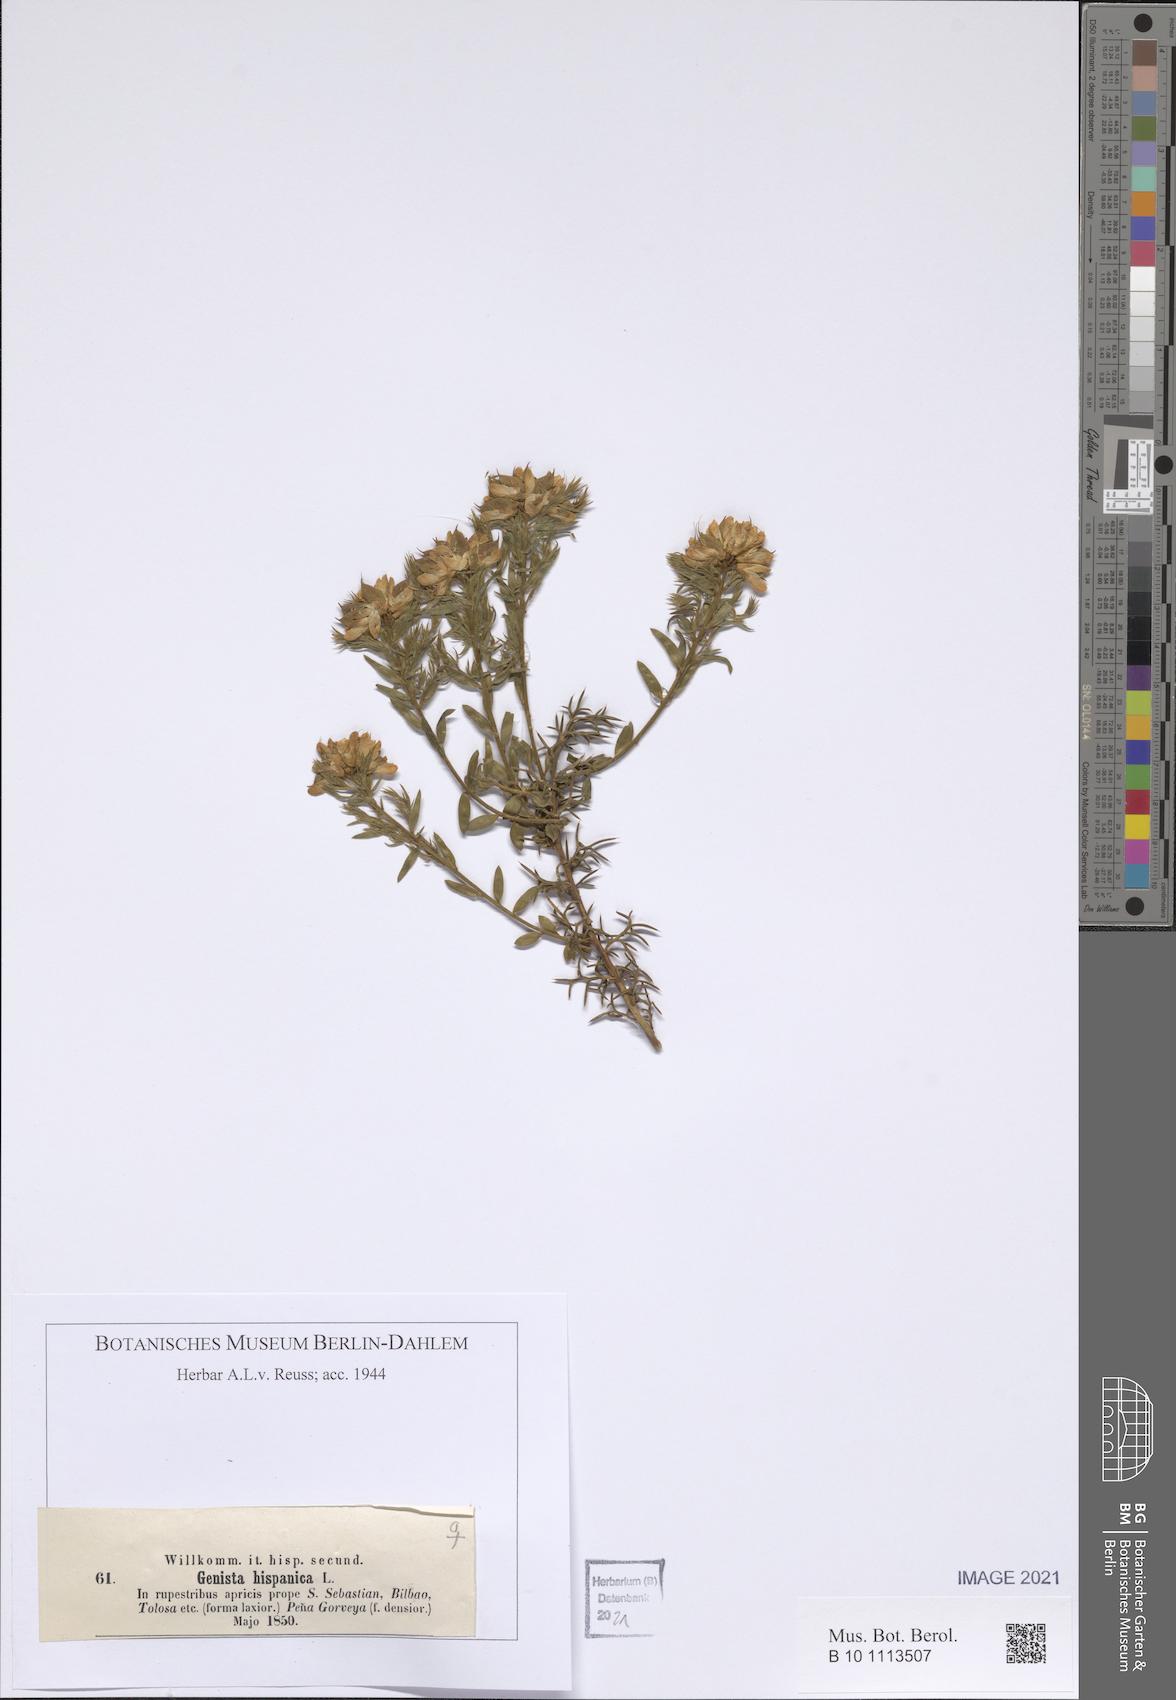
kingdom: Plantae
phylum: Tracheophyta
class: Magnoliopsida
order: Fabales
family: Fabaceae
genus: Genista
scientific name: Genista tinctoria
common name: Dyer's greenweed
